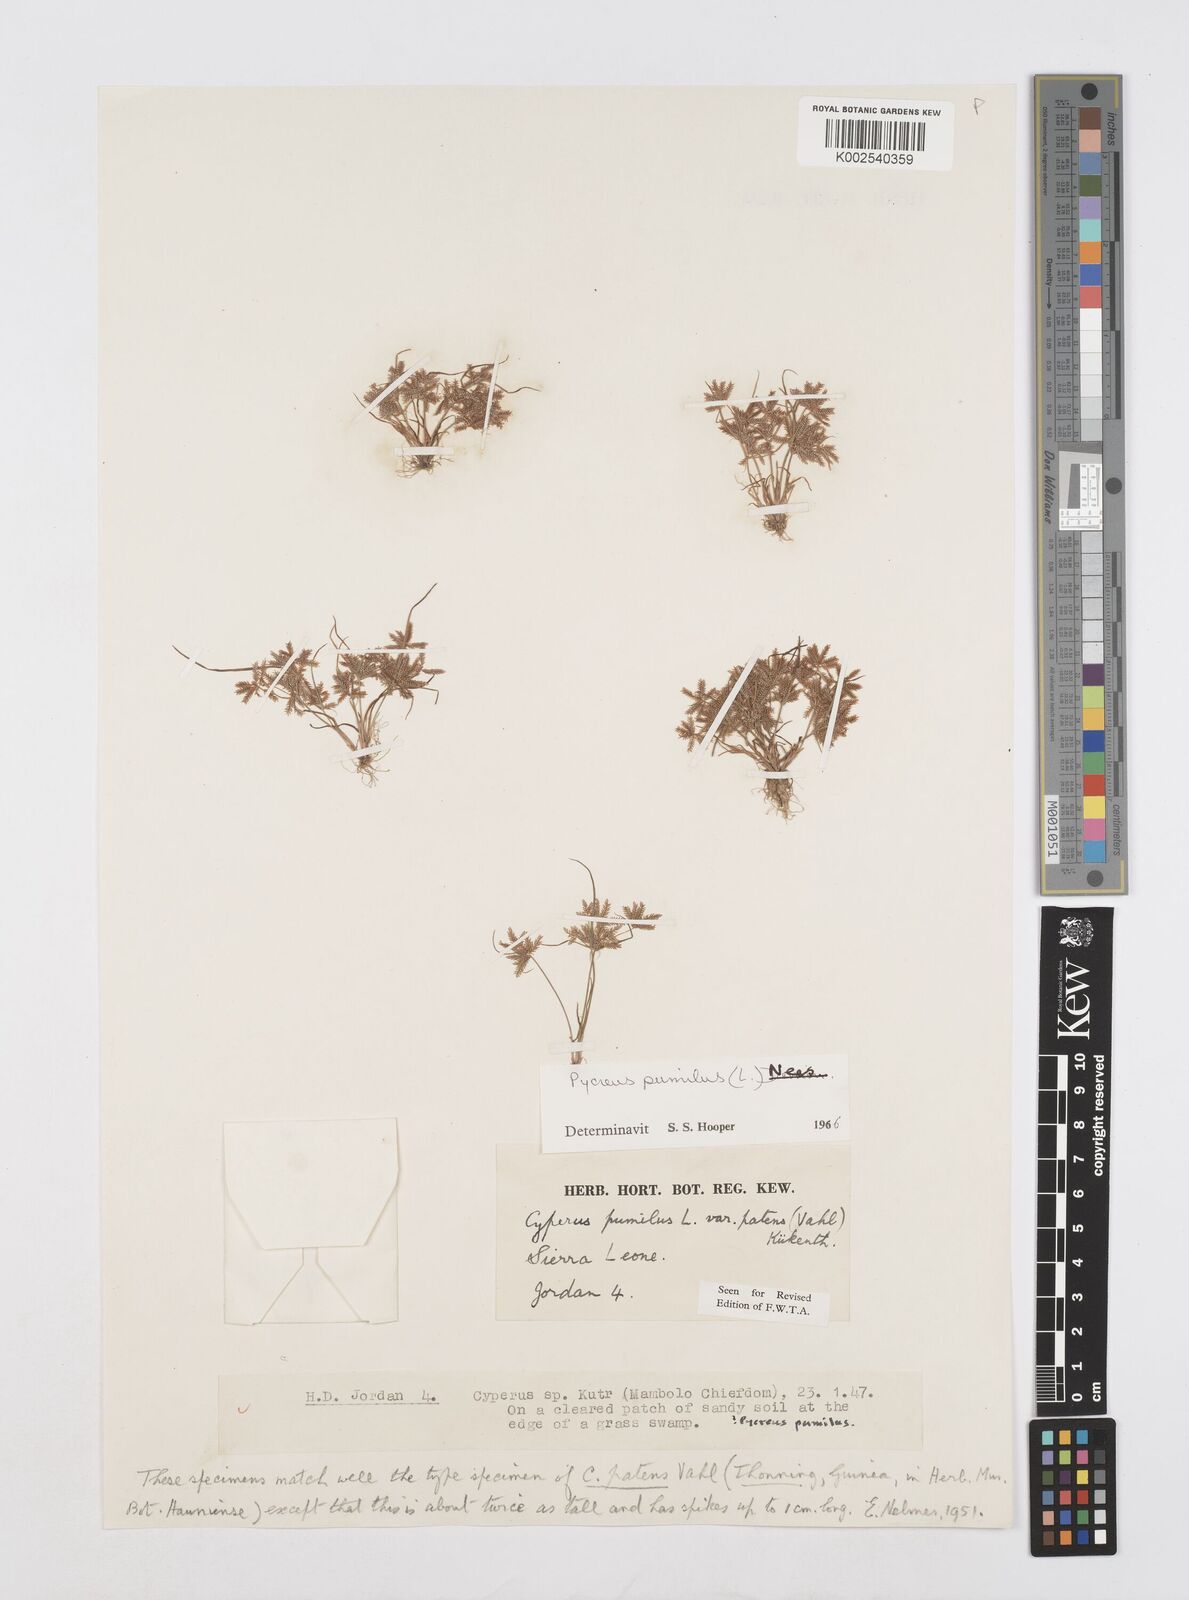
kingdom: Plantae
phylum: Tracheophyta
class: Liliopsida
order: Poales
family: Cyperaceae
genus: Cyperus
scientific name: Cyperus pumilus
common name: Low flatsedge
